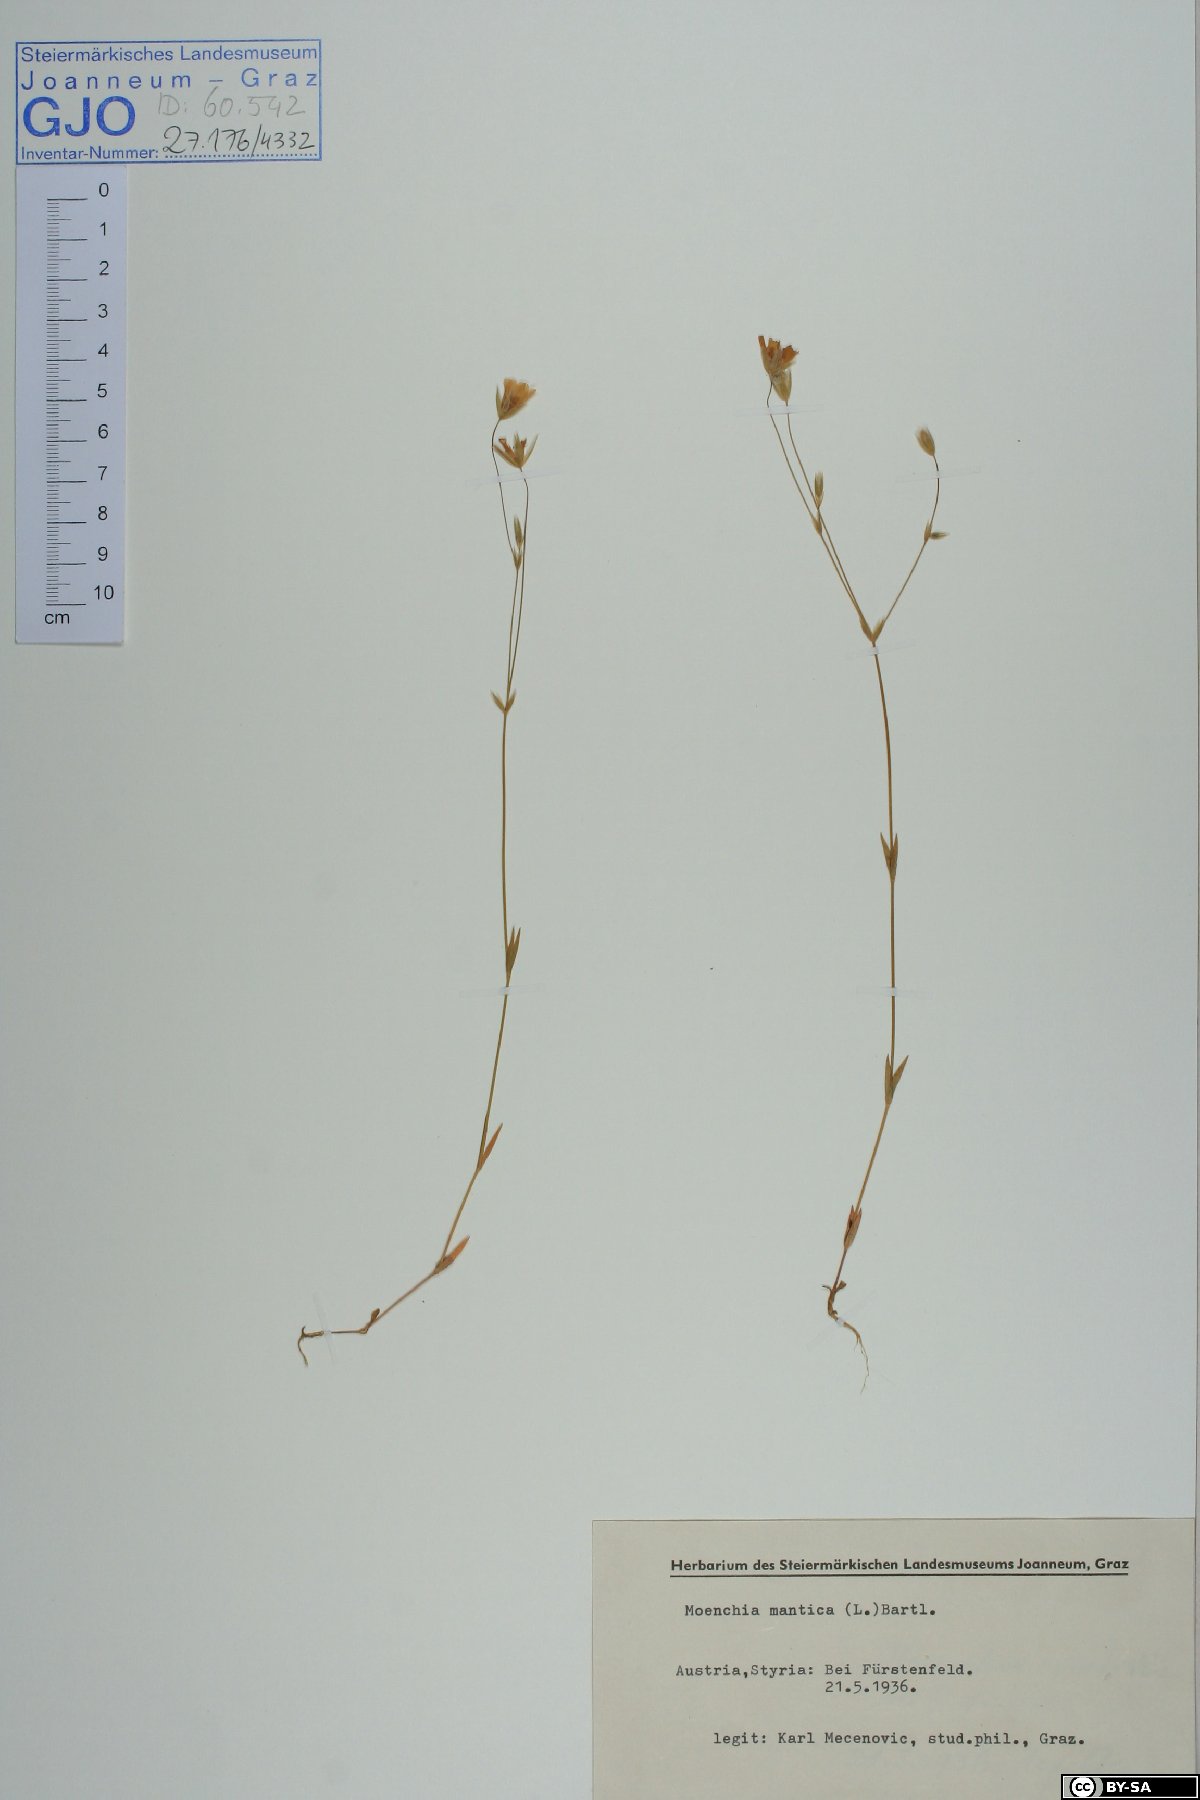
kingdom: Plantae
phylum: Tracheophyta
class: Magnoliopsida
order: Caryophyllales
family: Caryophyllaceae
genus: Moenchia
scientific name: Moenchia mantica
